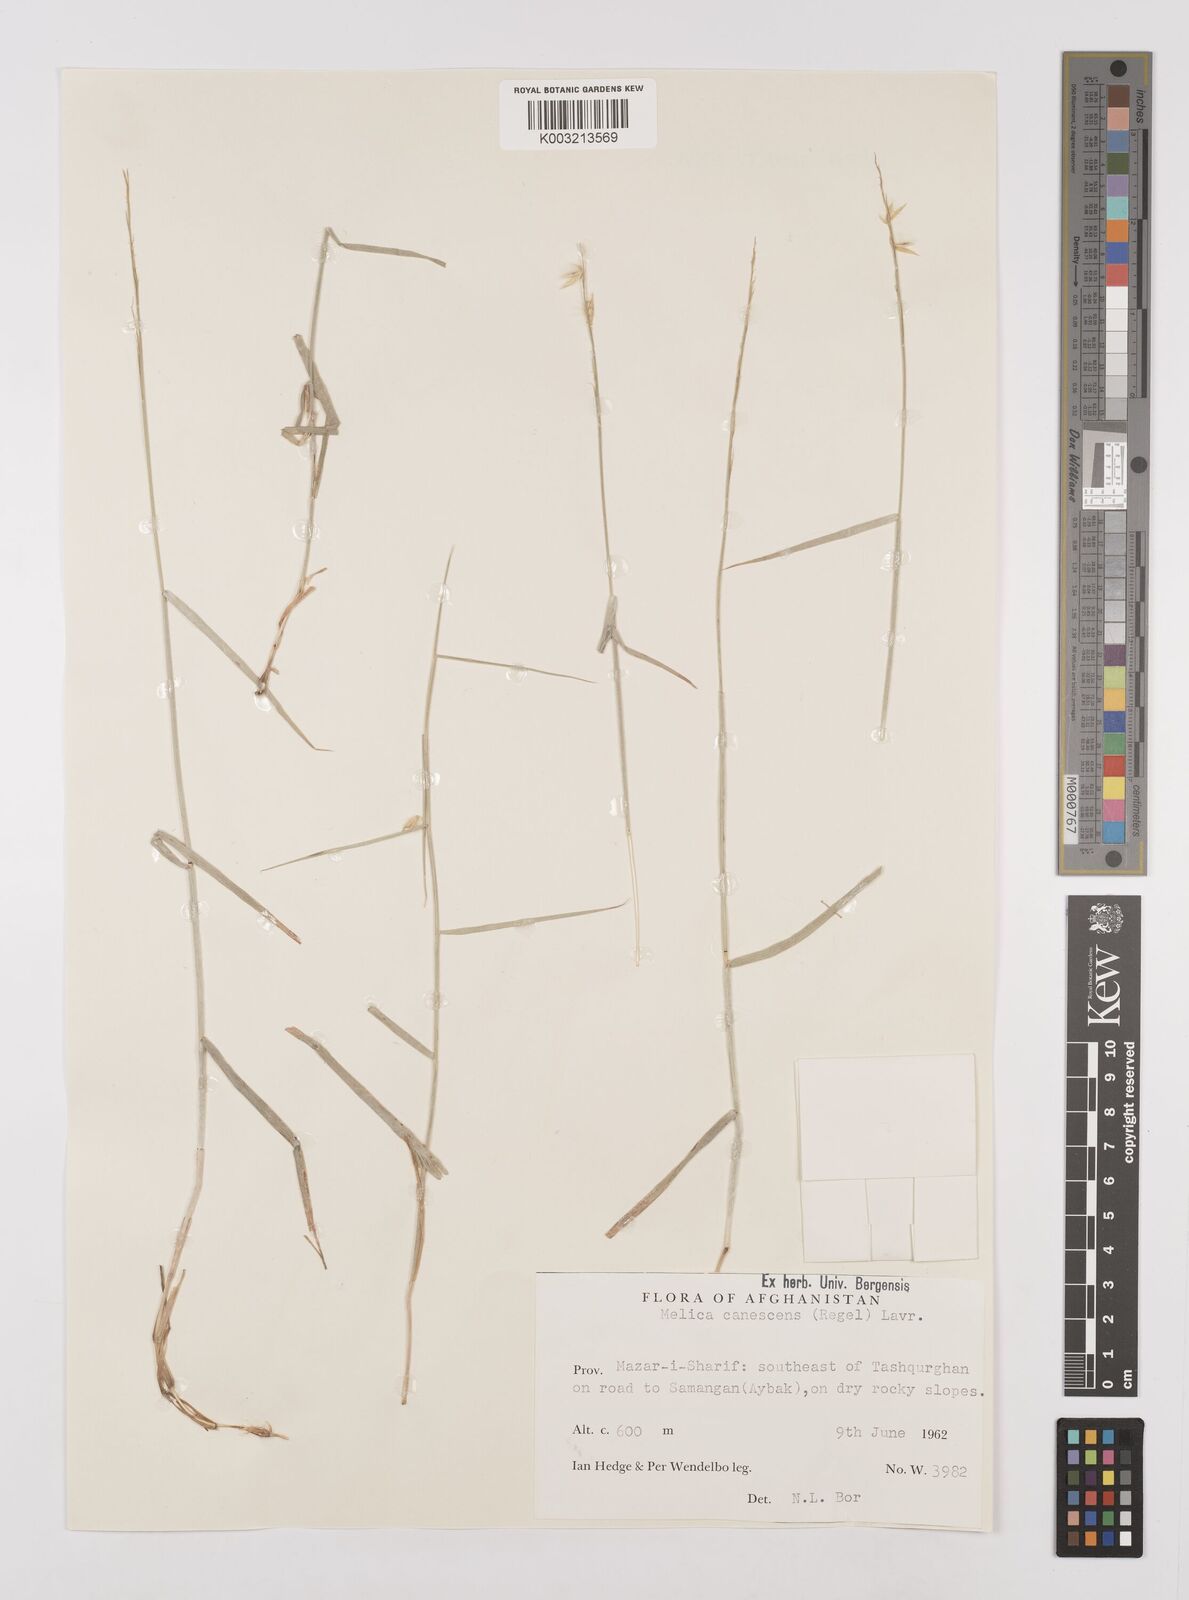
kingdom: Plantae
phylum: Tracheophyta
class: Liliopsida
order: Poales
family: Poaceae
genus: Melica
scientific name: Melica persica
